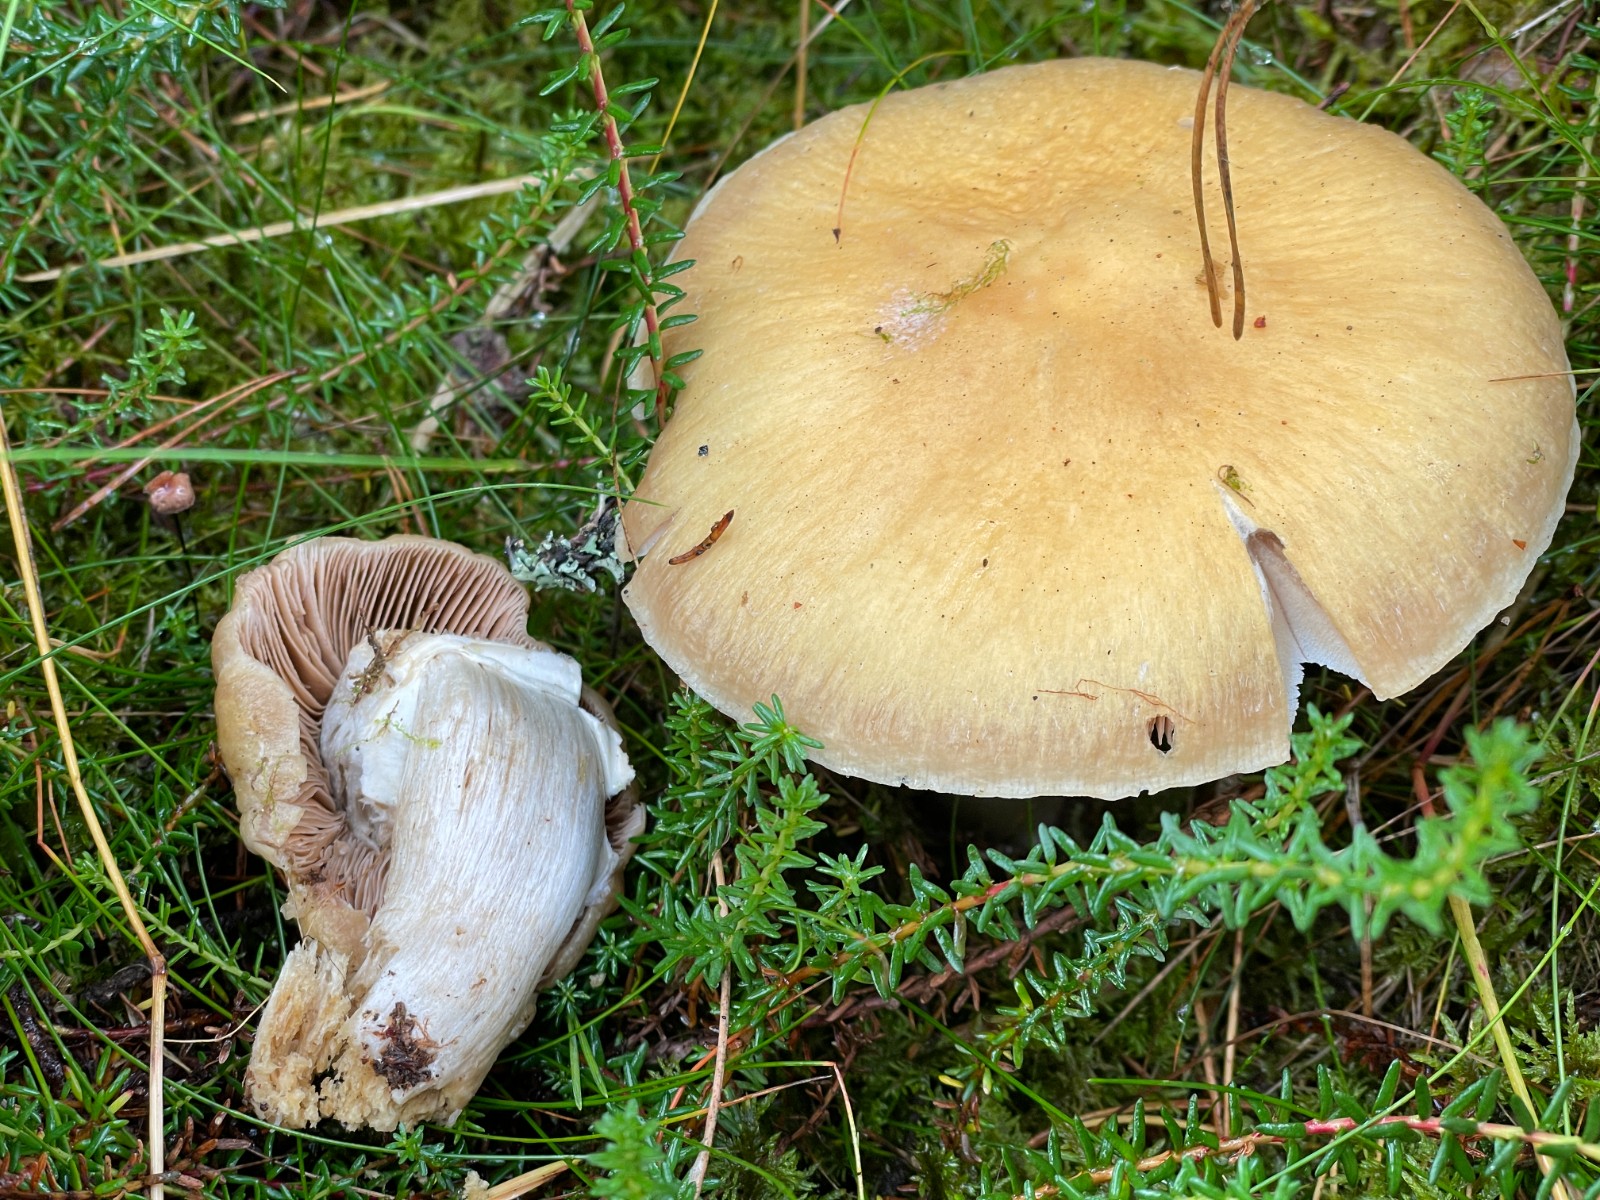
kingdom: Fungi
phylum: Basidiomycota
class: Agaricomycetes
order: Agaricales
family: Cortinariaceae
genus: Cortinarius
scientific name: Cortinarius caperatus
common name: klidhat
